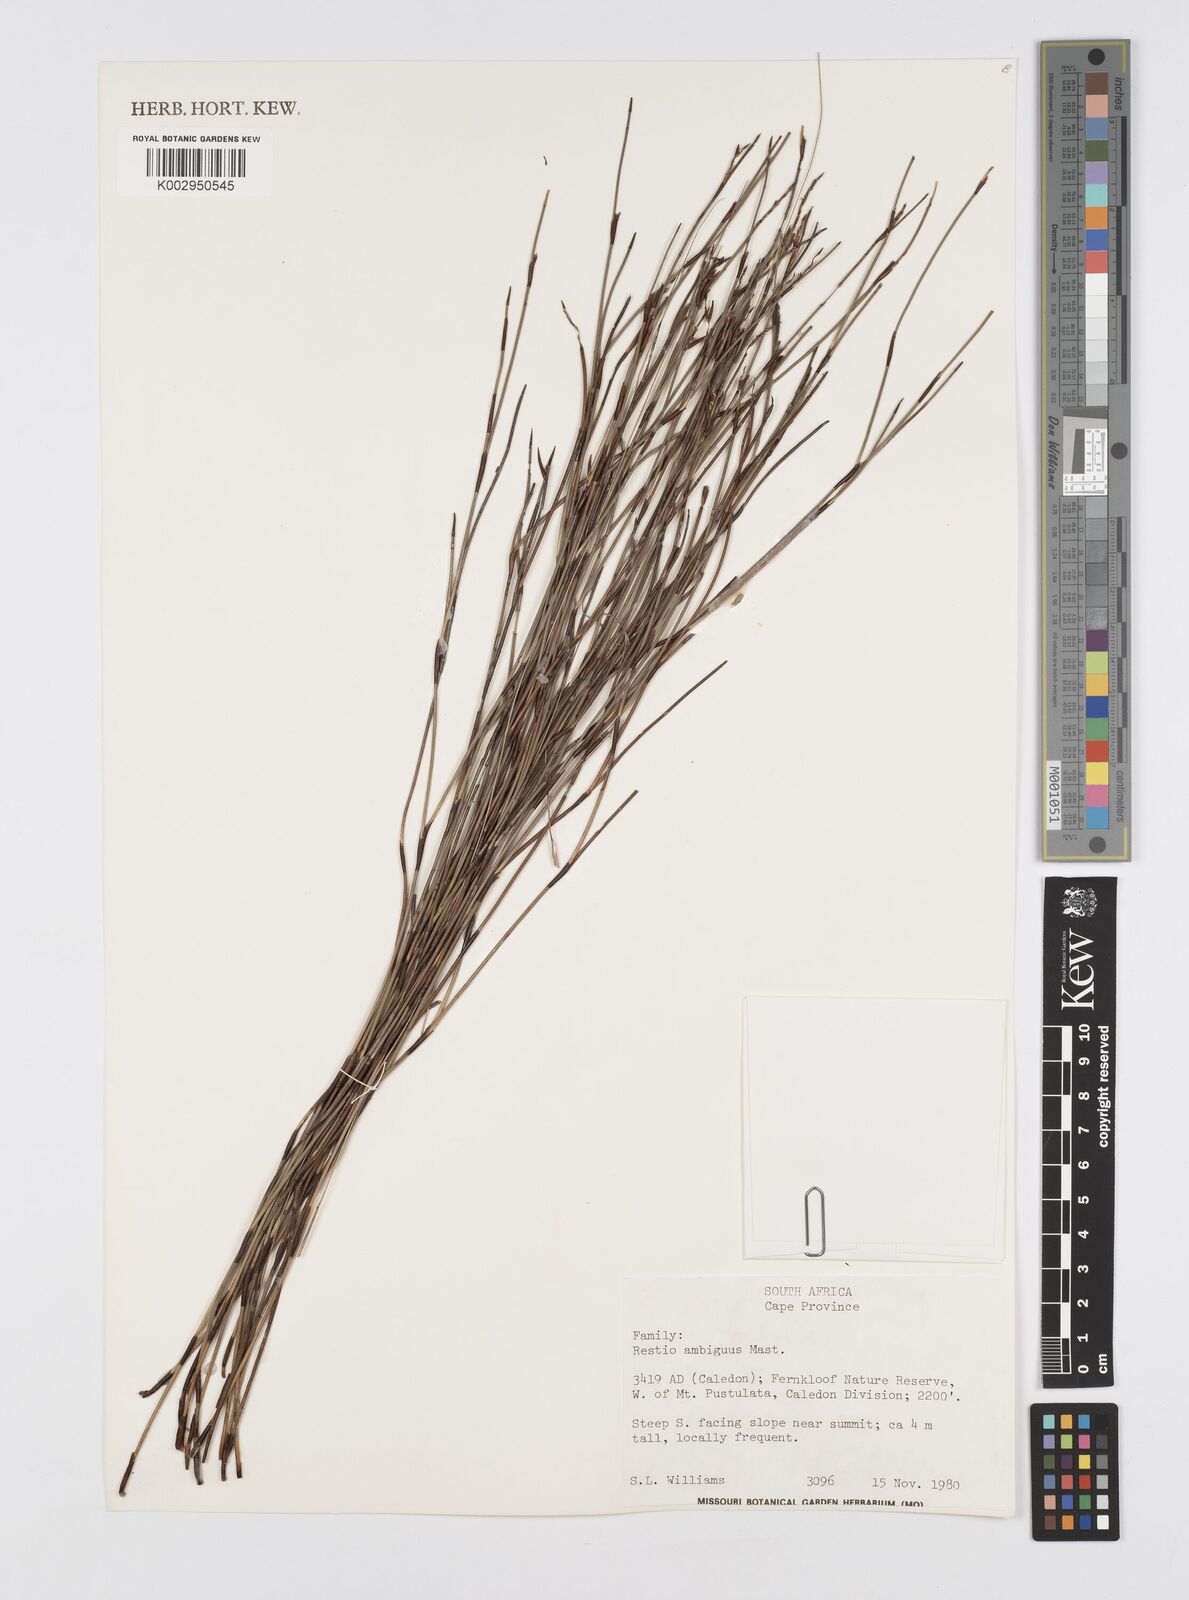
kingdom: Plantae
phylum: Tracheophyta
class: Liliopsida
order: Poales
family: Restionaceae
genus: Soroveta
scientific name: Soroveta ambigua
